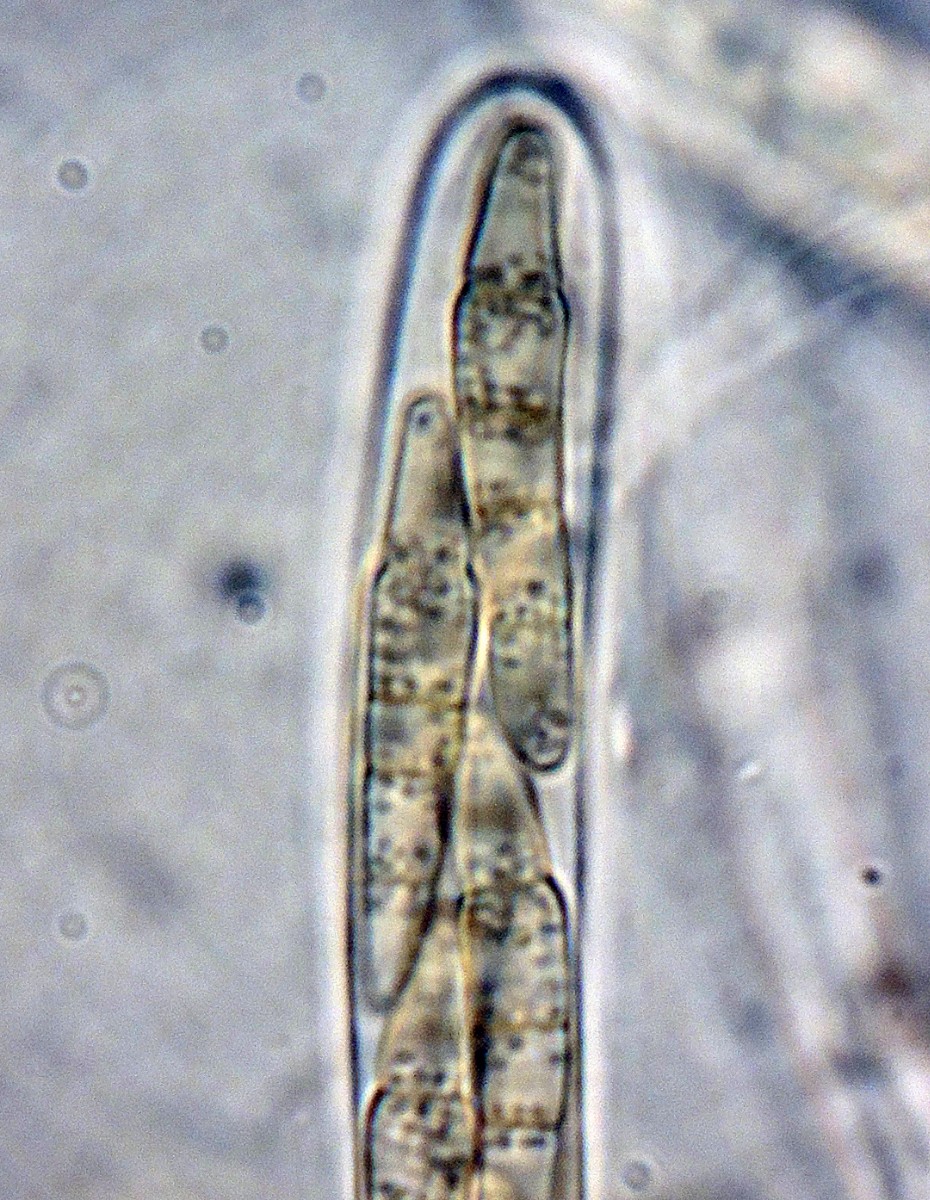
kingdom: Fungi
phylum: Ascomycota
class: Dothideomycetes
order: Pleosporales
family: Phaeosphaeriaceae
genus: Entodesmium
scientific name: Entodesmium niesslianum
